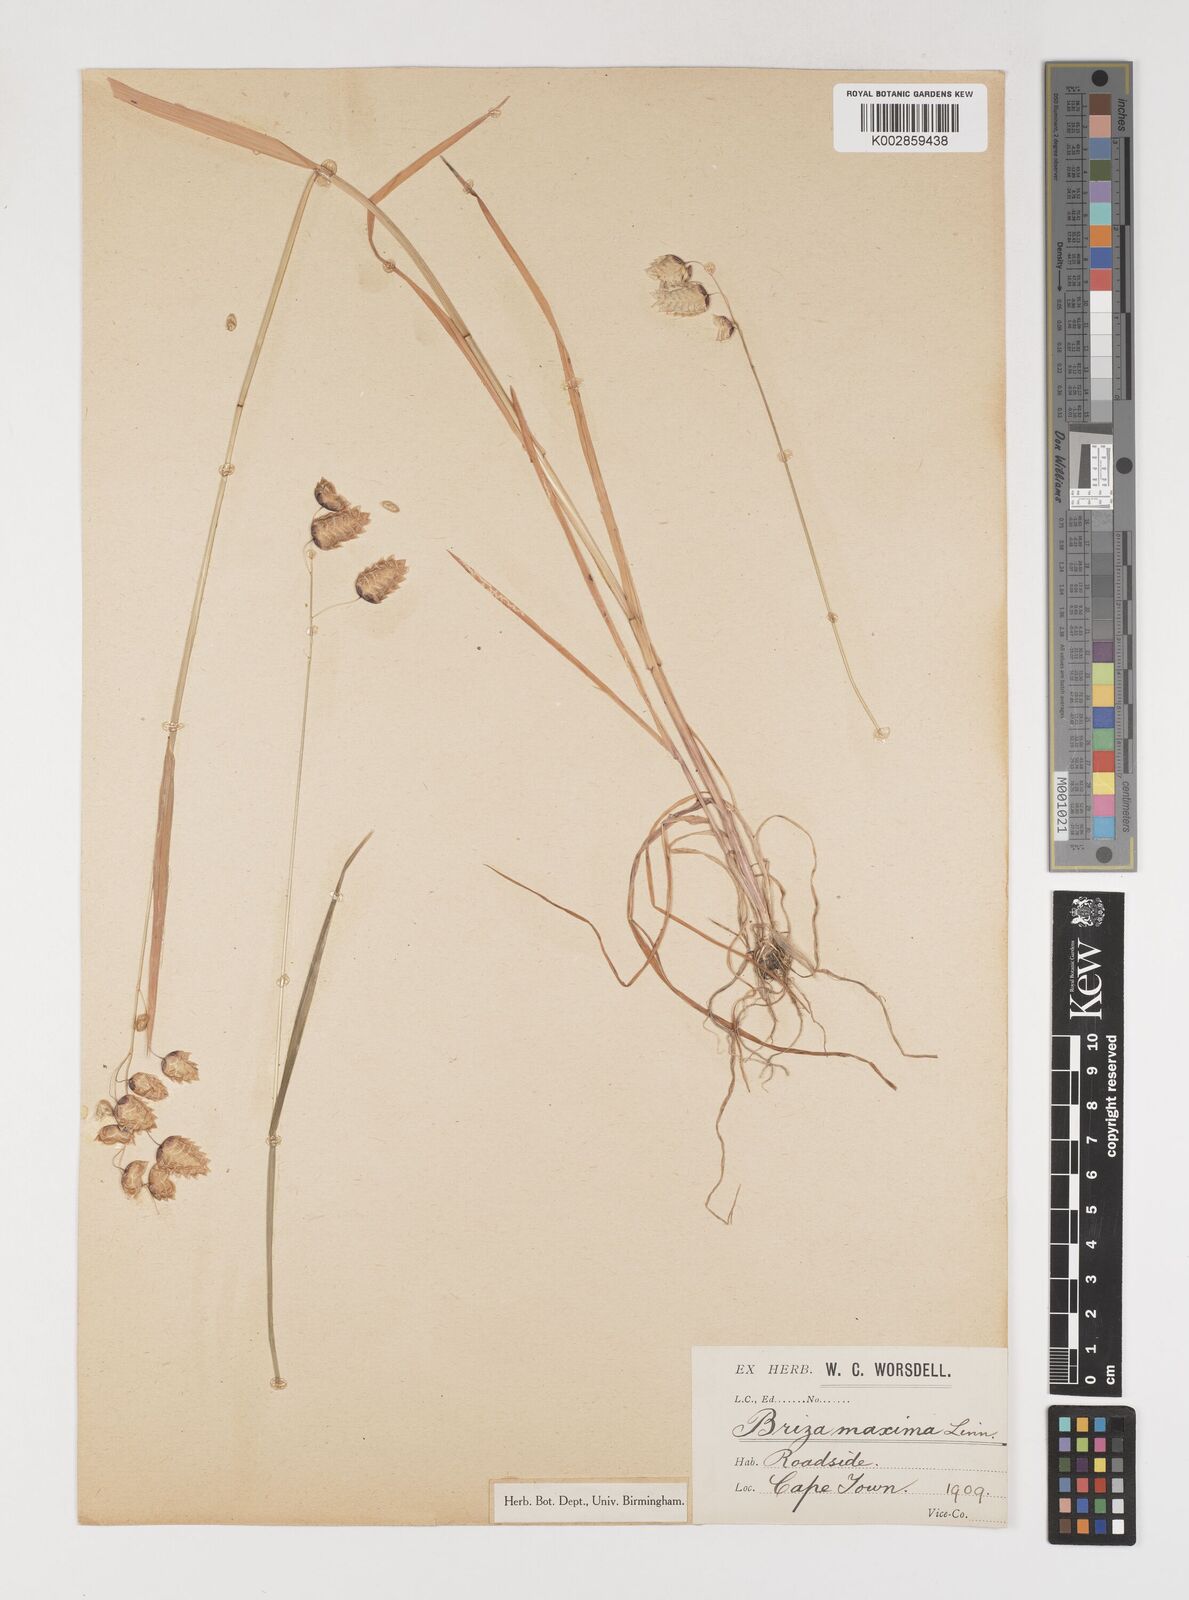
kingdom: Plantae
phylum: Tracheophyta
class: Liliopsida
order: Poales
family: Poaceae
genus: Briza
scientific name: Briza maxima
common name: Big quakinggrass
